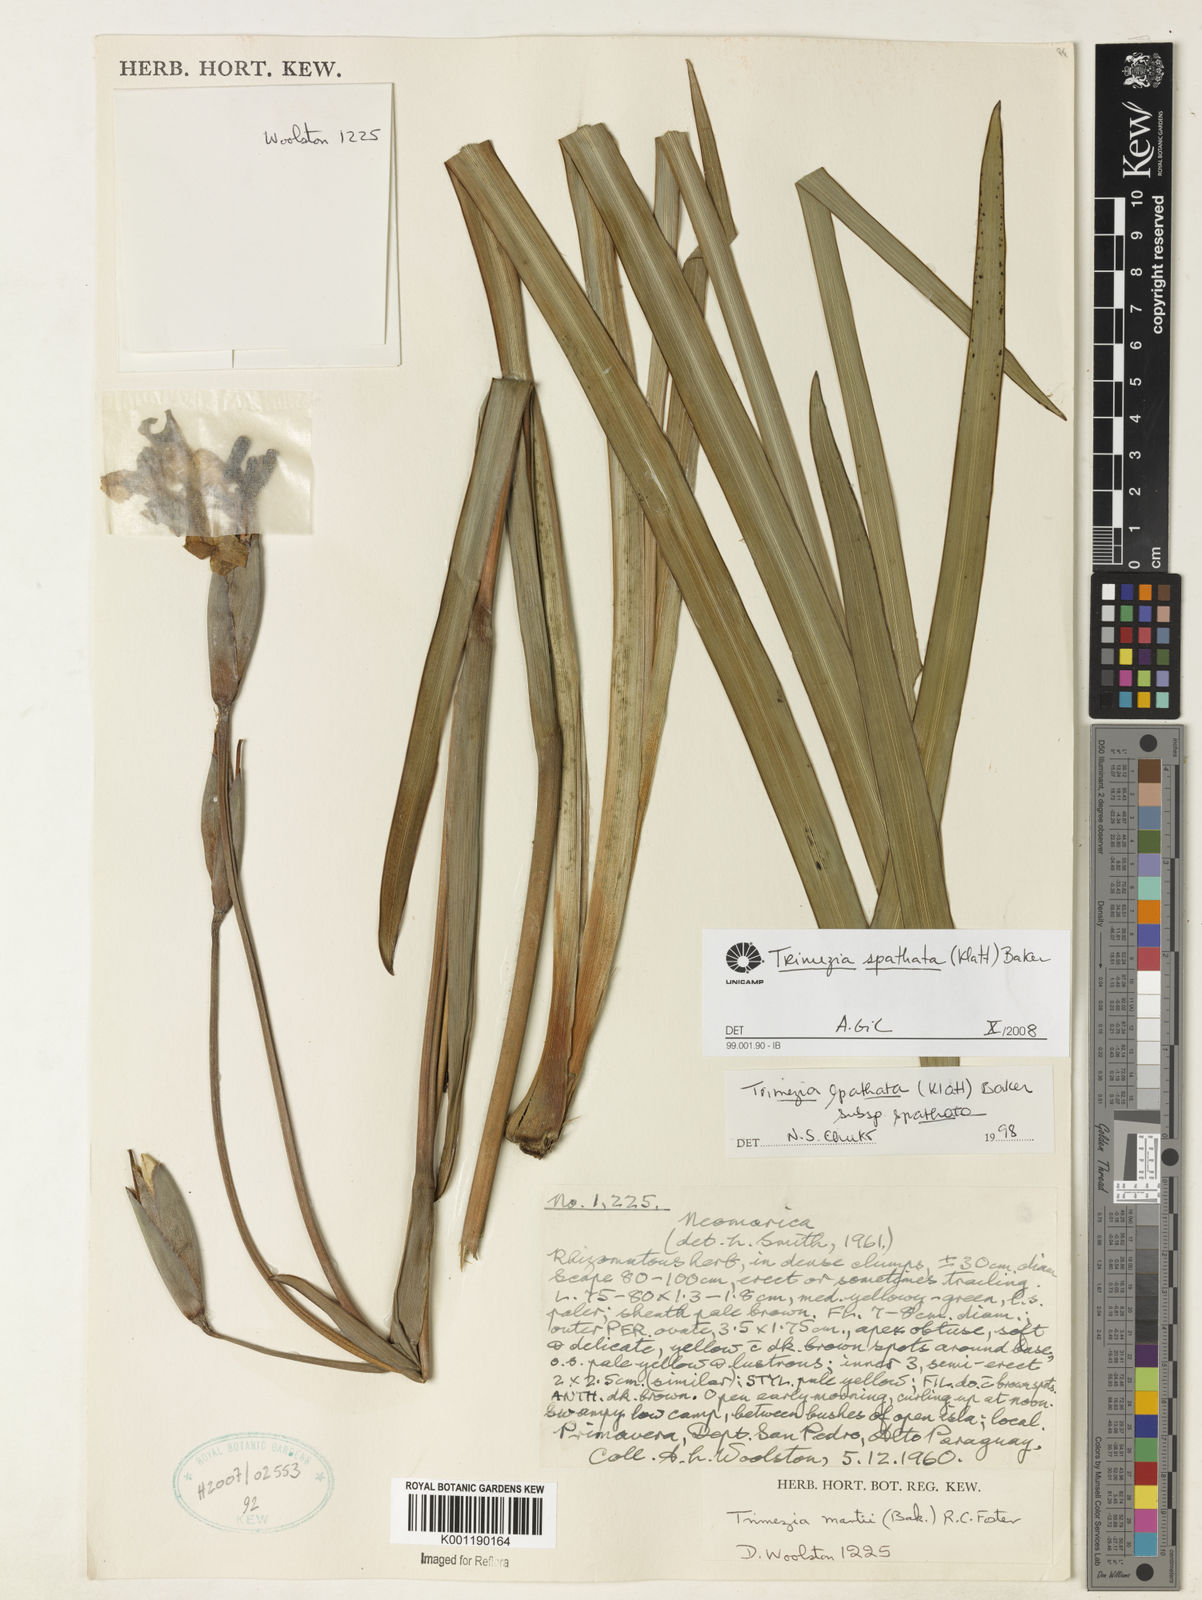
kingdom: Plantae
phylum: Tracheophyta
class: Liliopsida
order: Asparagales
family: Iridaceae
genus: Trimezia
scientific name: Trimezia spathata
